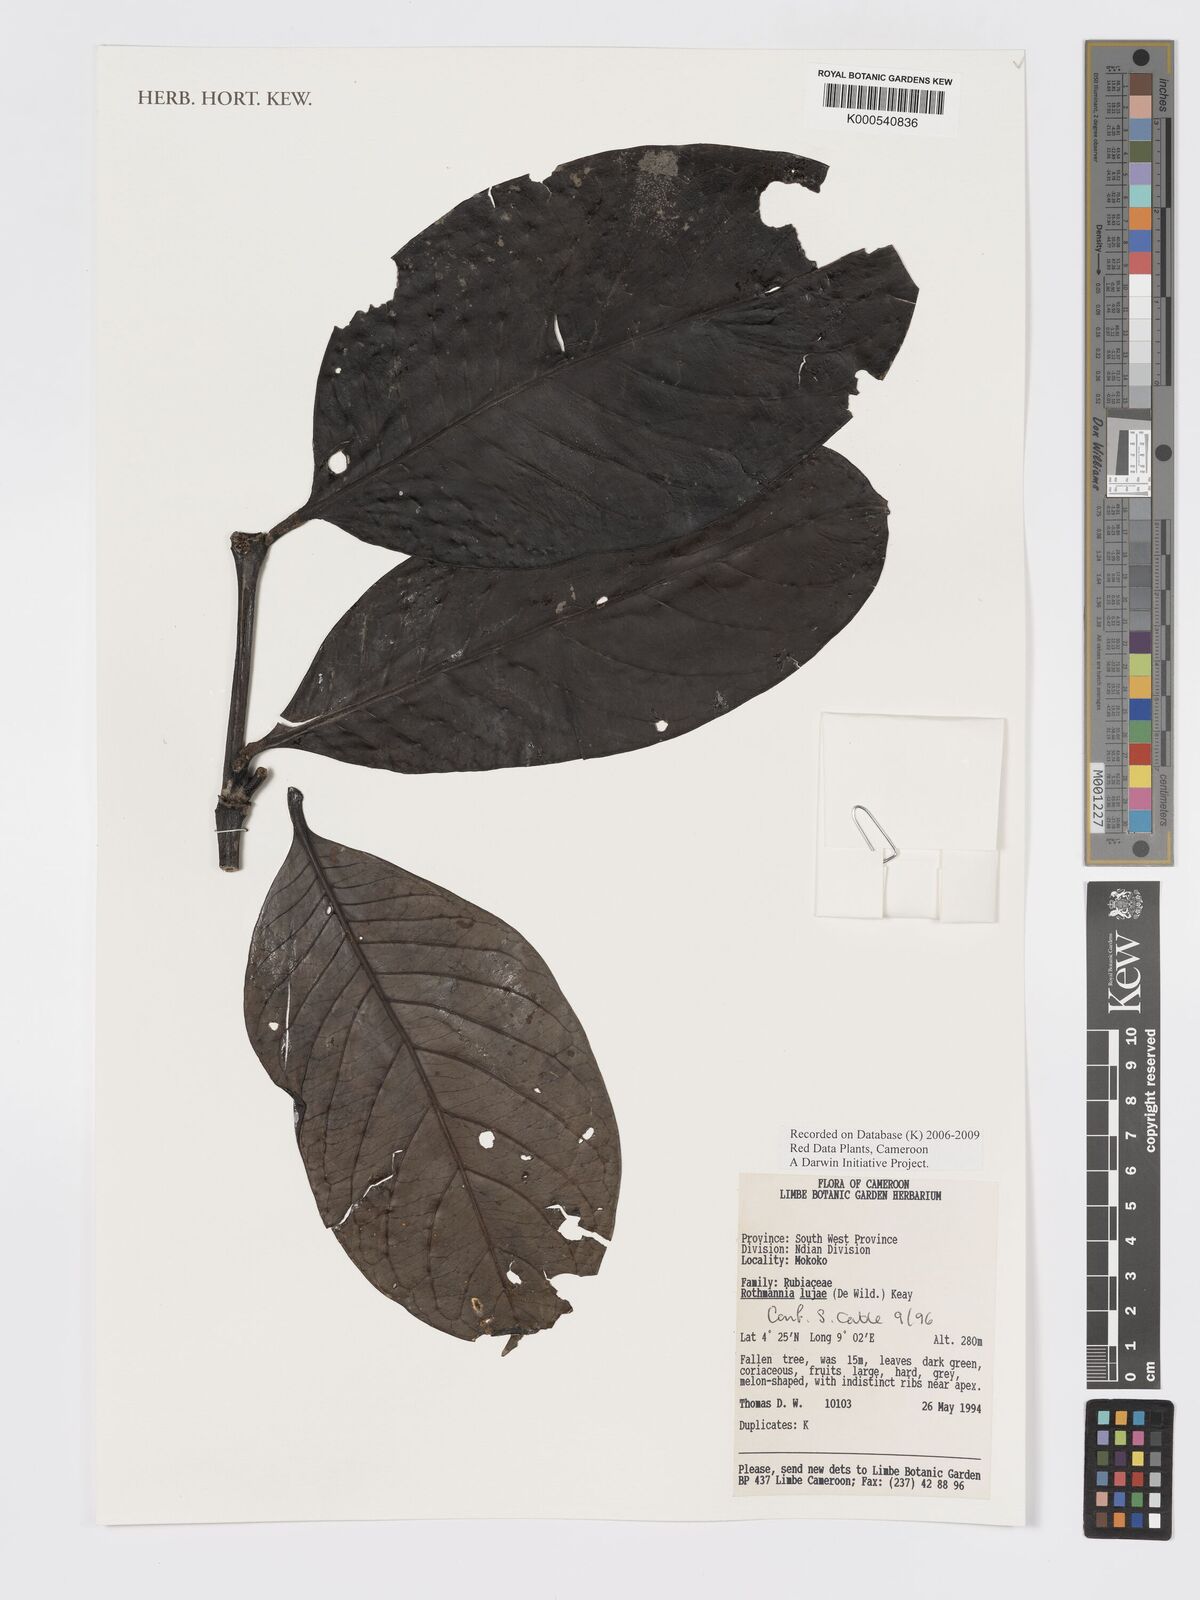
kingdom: Plantae
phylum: Tracheophyta
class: Magnoliopsida
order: Gentianales
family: Rubiaceae
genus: Rothmannia
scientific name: Rothmannia lujae
